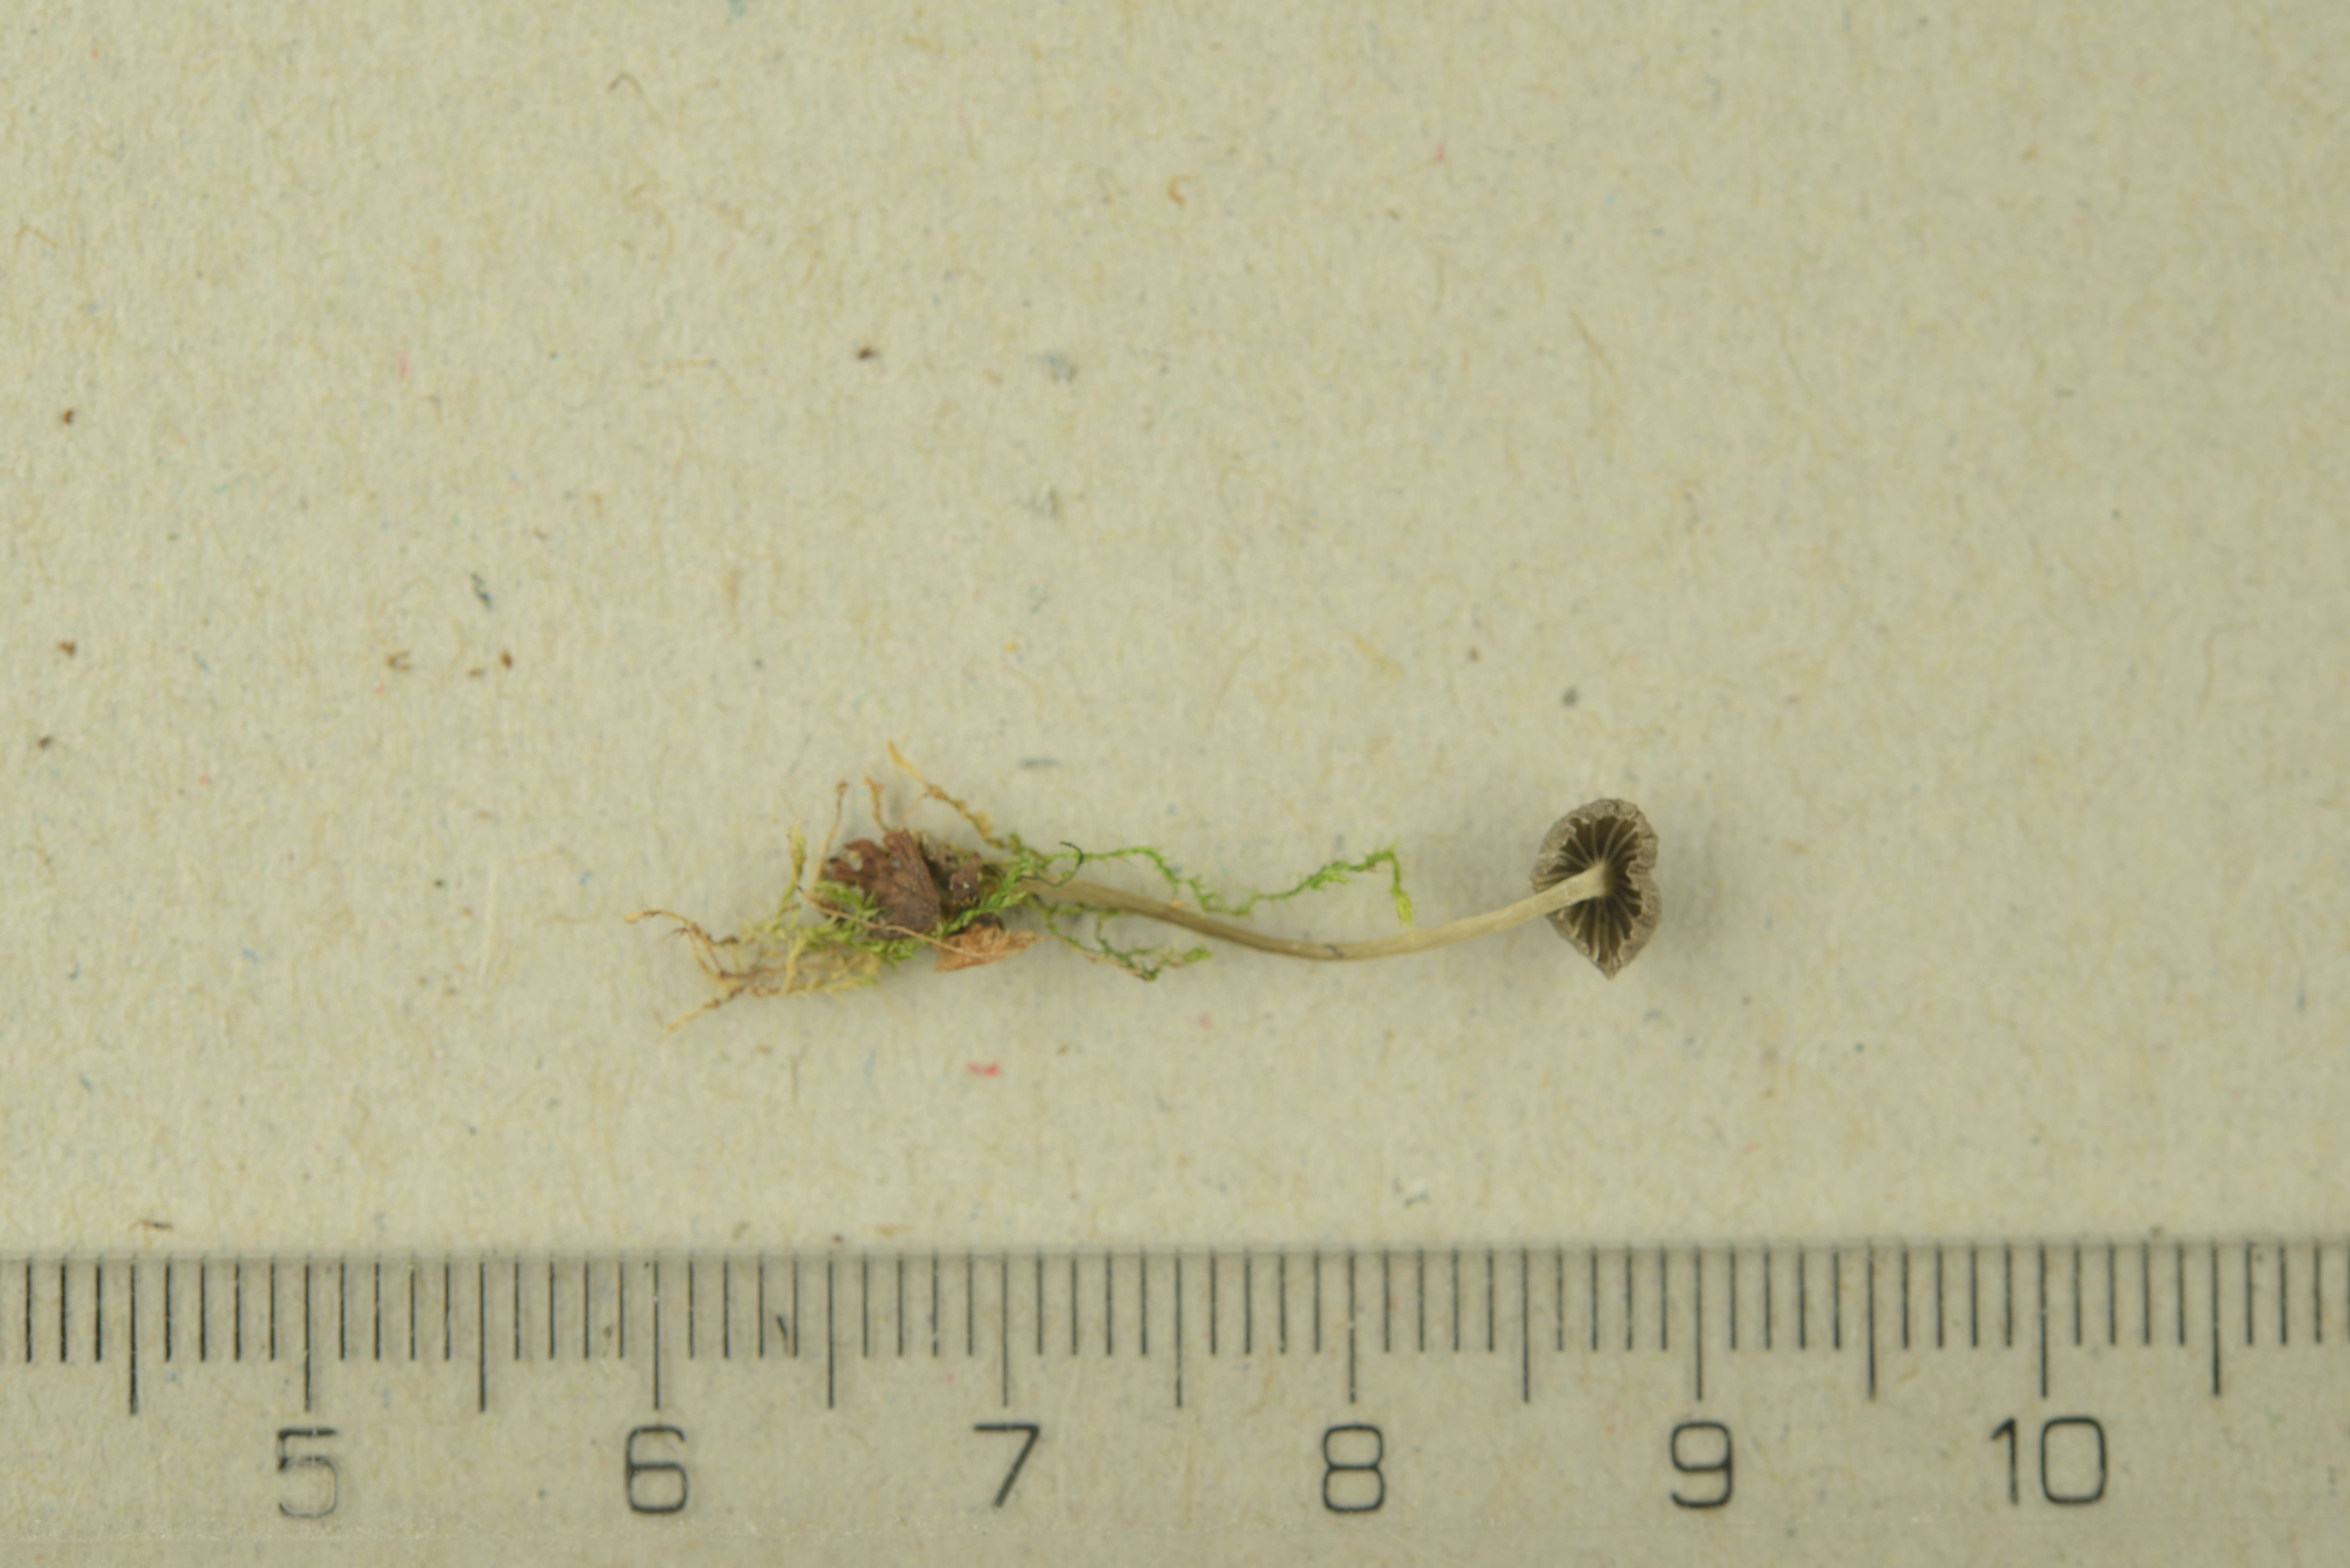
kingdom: Fungi
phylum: Basidiomycota
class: Agaricomycetes
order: Agaricales
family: Mycenaceae
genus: Mycena
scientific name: Mycena pasvikensis
